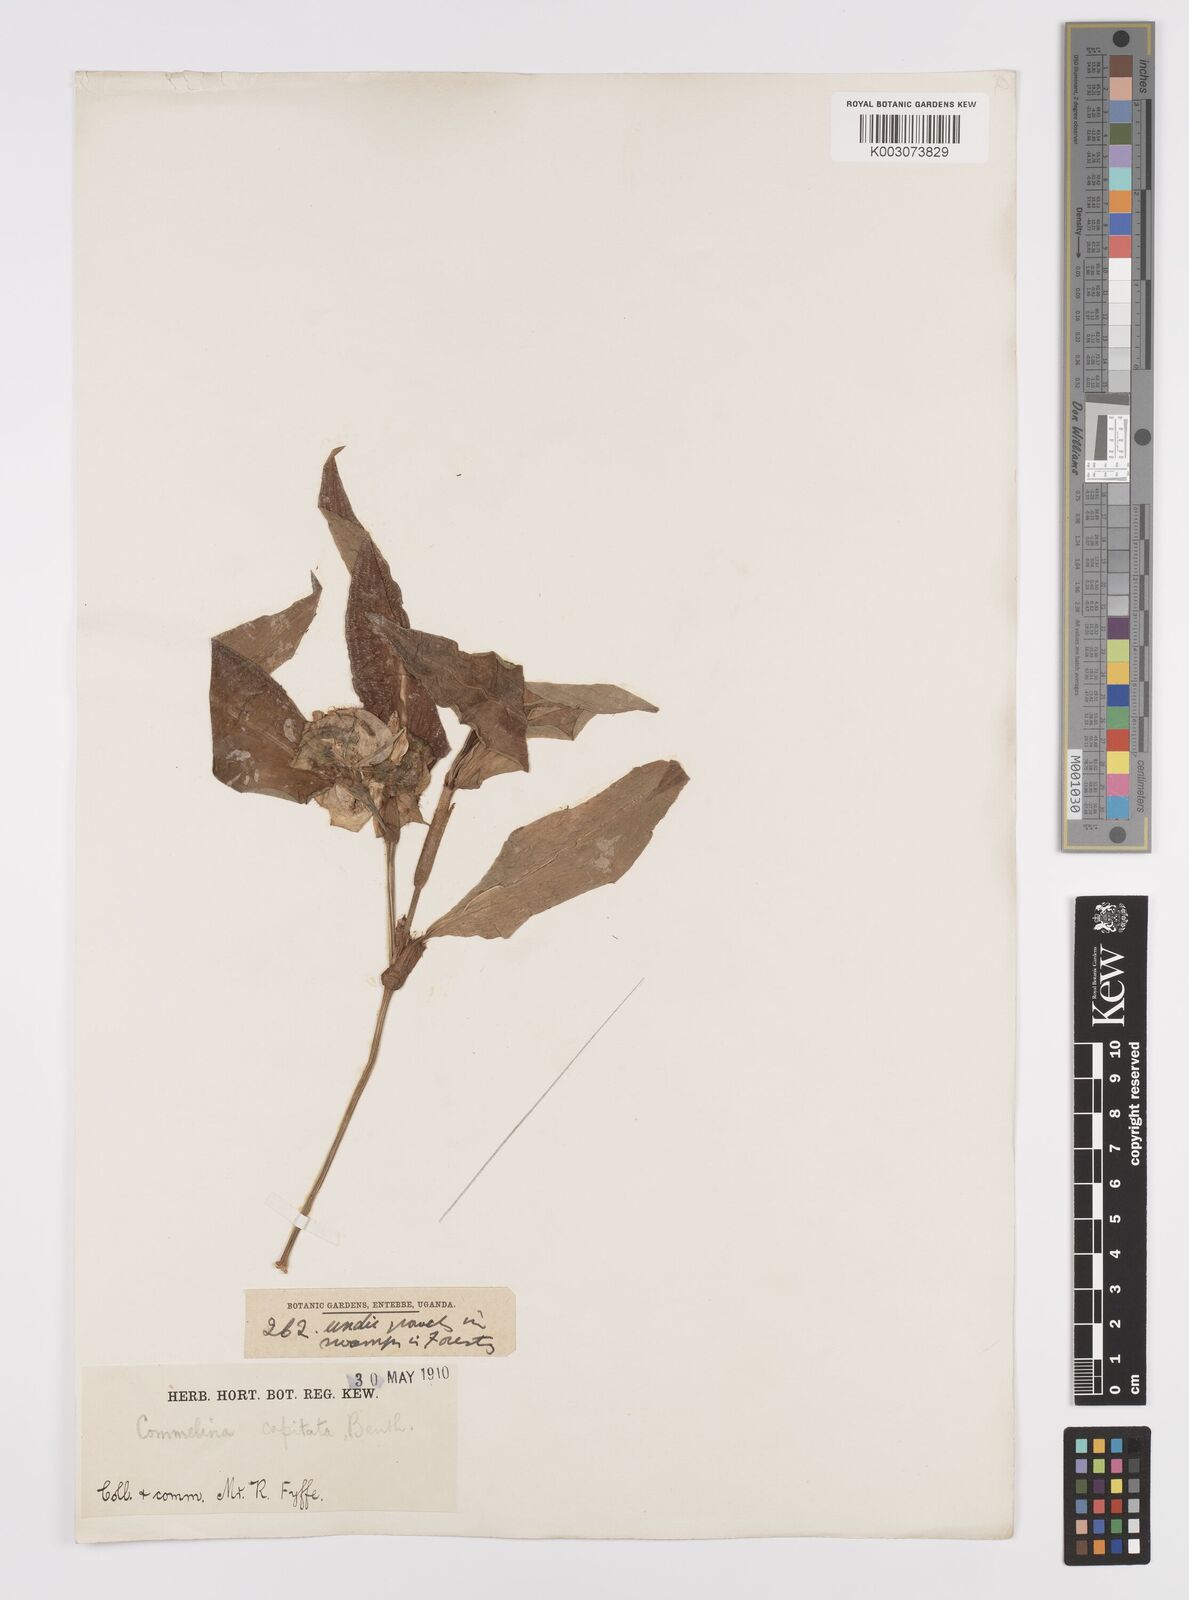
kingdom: Plantae
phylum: Tracheophyta
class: Liliopsida
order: Commelinales
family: Commelinaceae
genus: Commelina
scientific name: Commelina capitata
